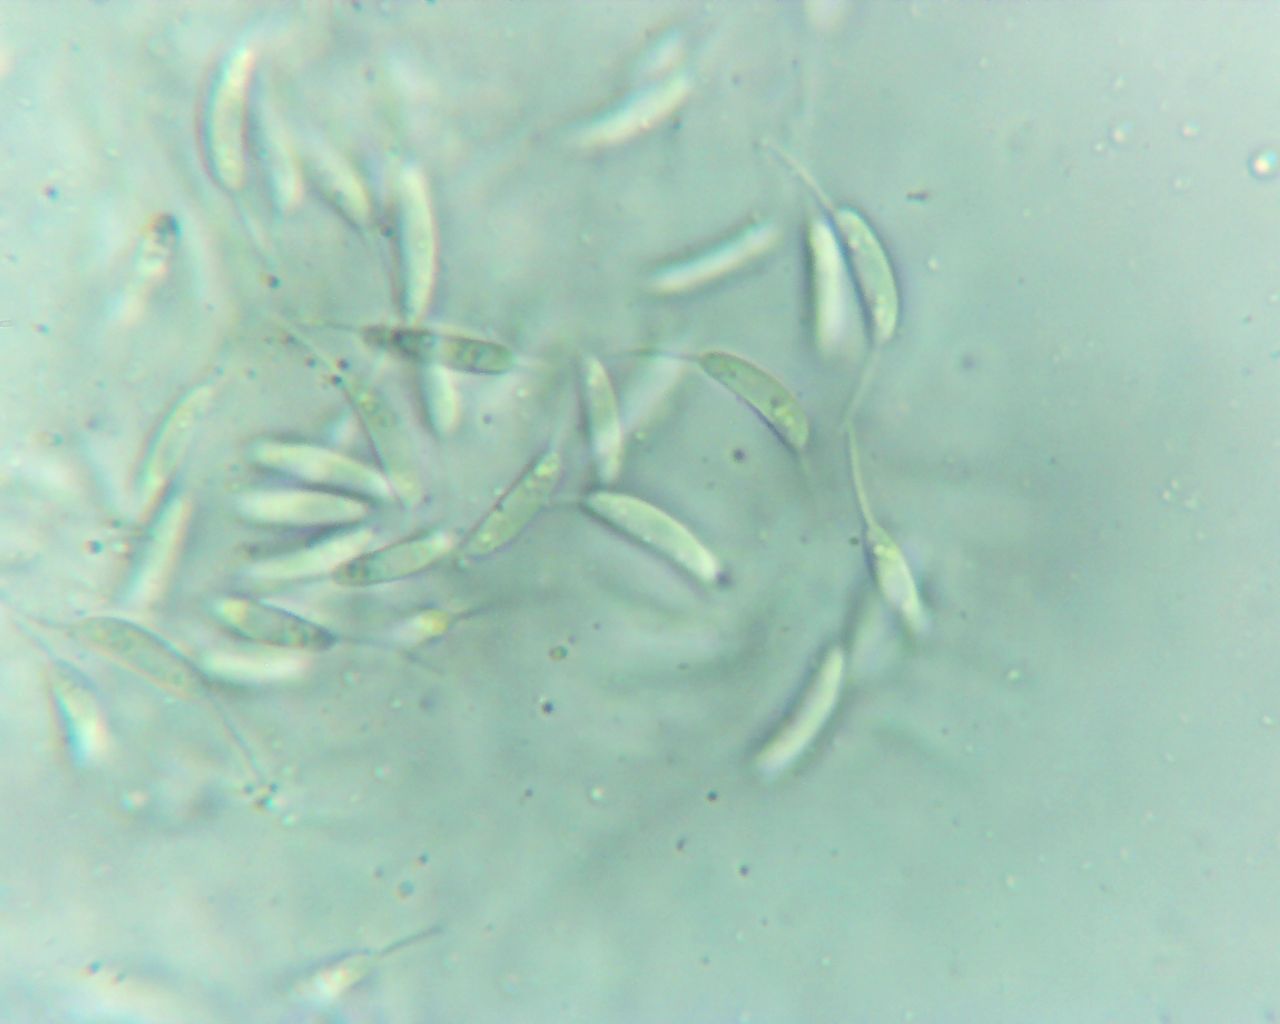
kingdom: Fungi
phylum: Ascomycota
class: Sordariomycetes
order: Chaetosphaeriales
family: Chaetosphaeriaceae
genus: Pseudolachnea
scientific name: Pseudolachnea hispidula
